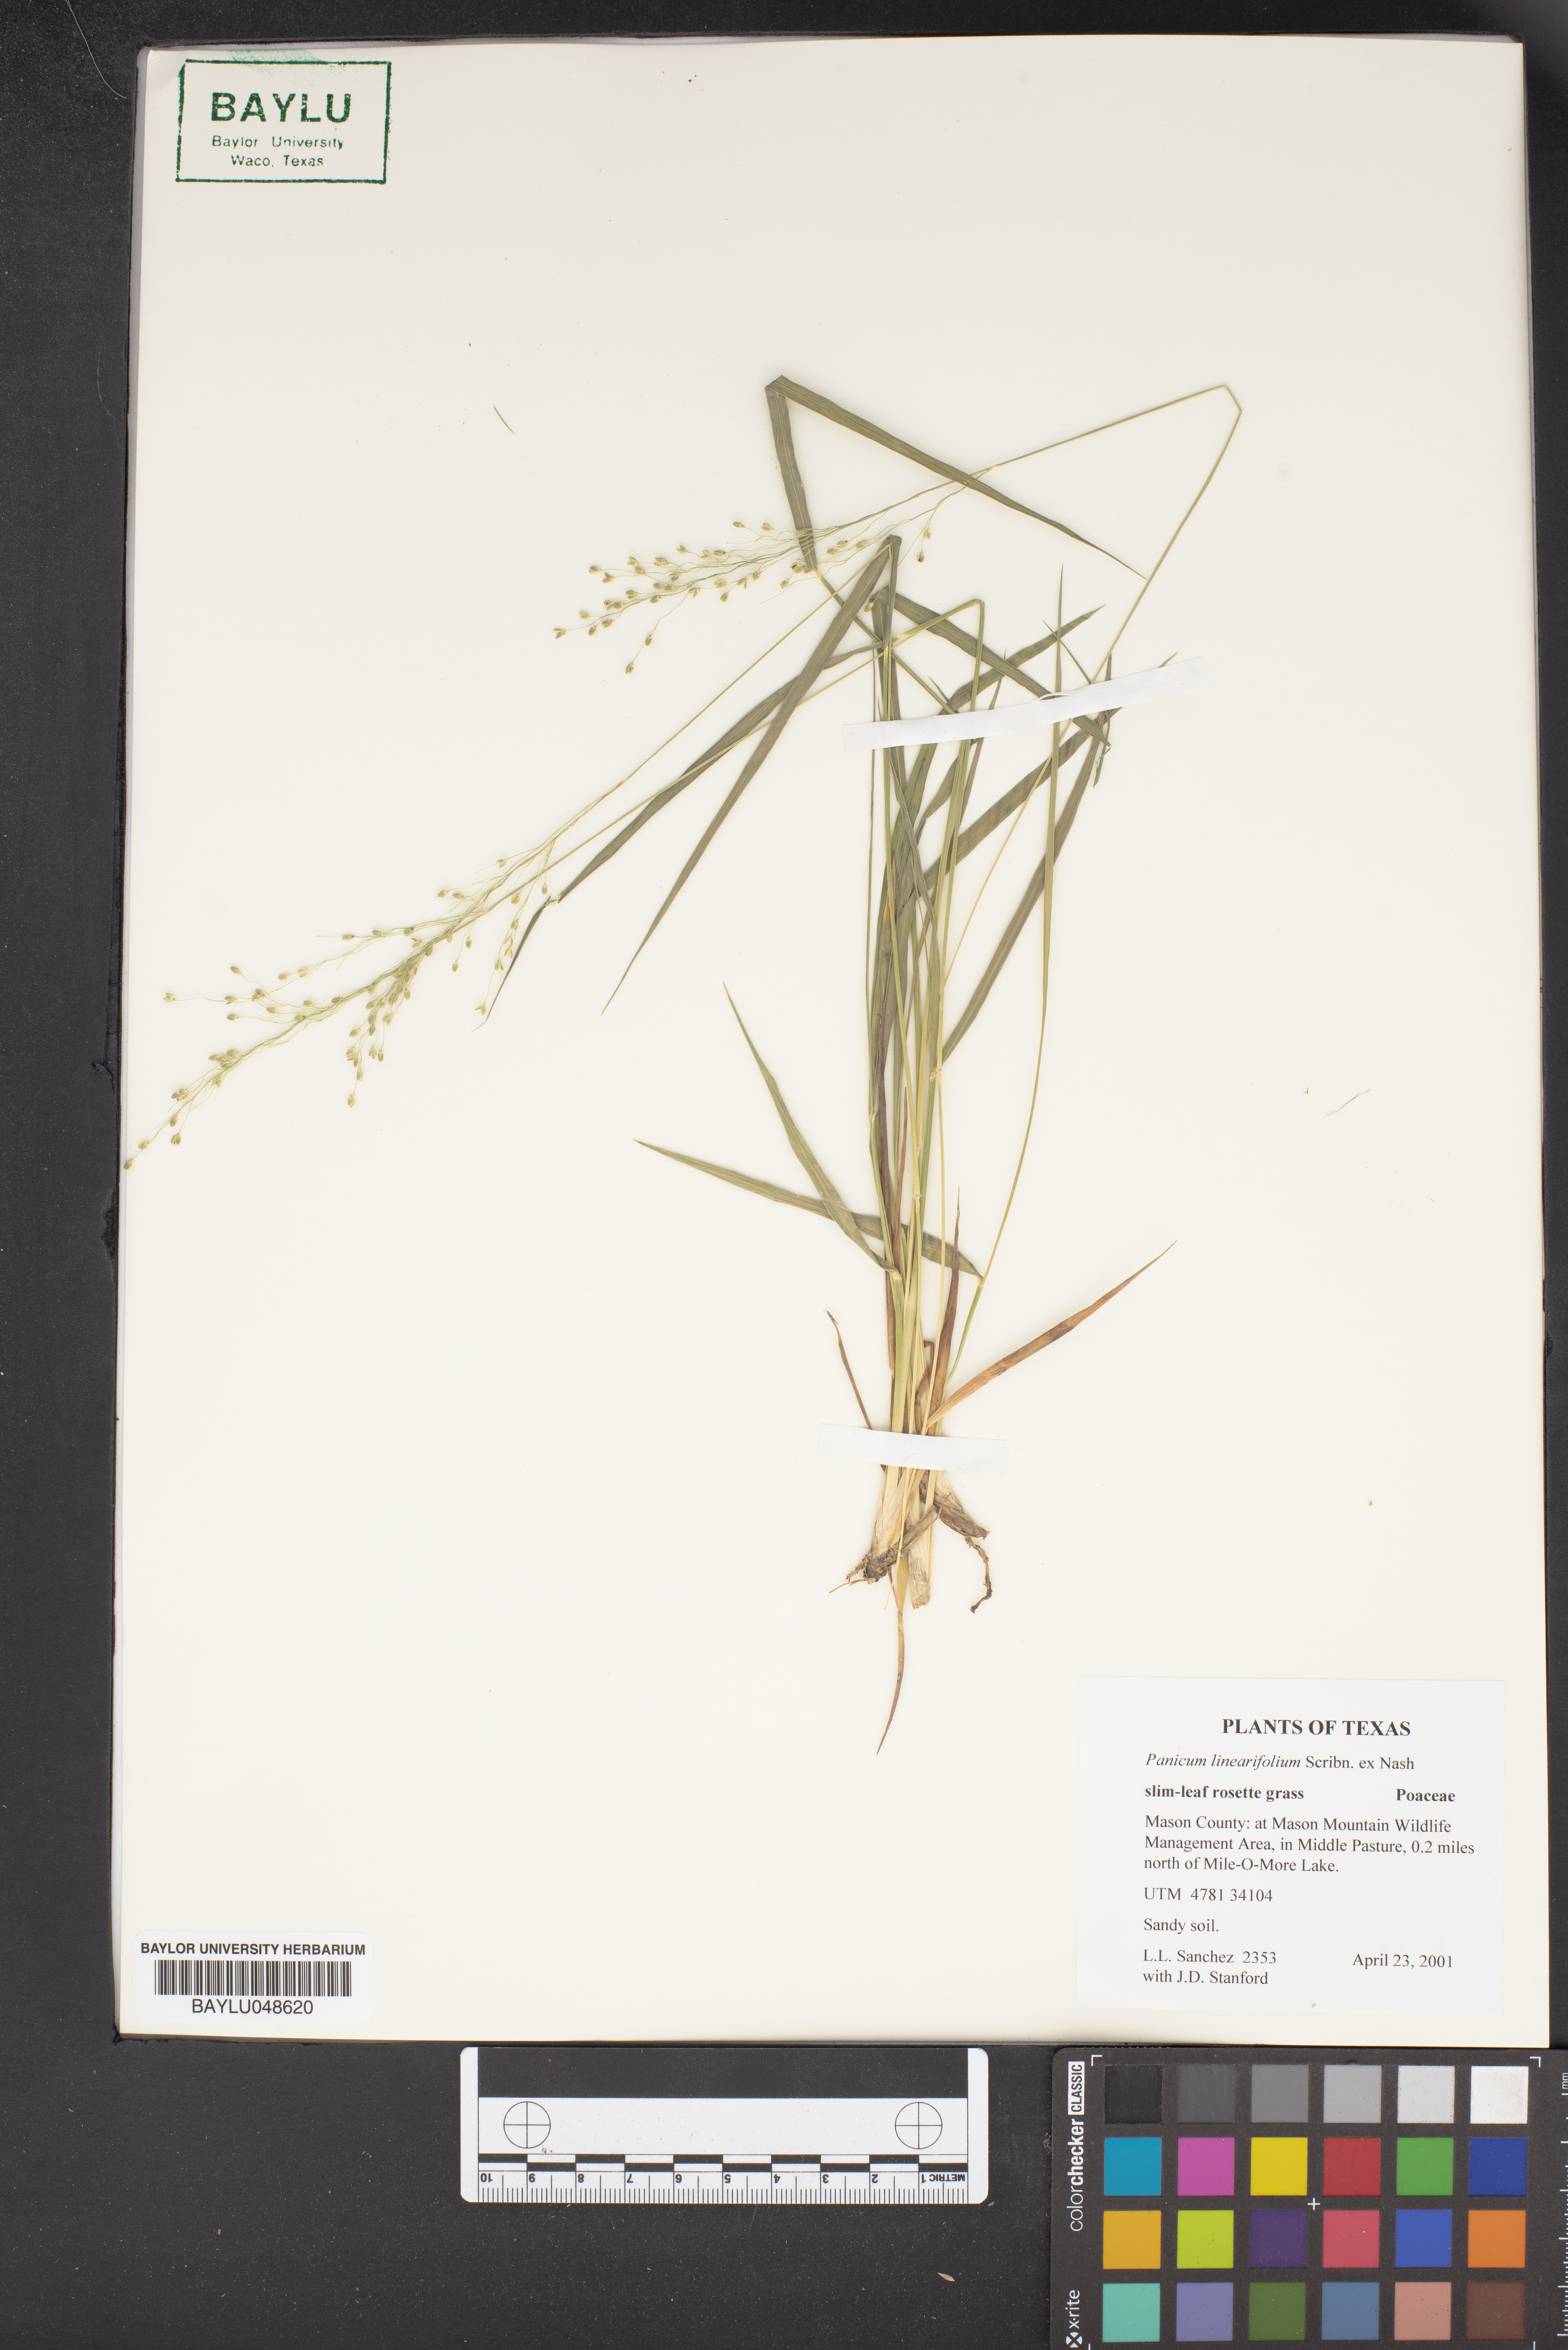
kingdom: Plantae
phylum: Tracheophyta
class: Liliopsida
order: Poales
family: Poaceae
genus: Dichanthelium
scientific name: Dichanthelium linearifolium
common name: Linear-leaved panicgrass
